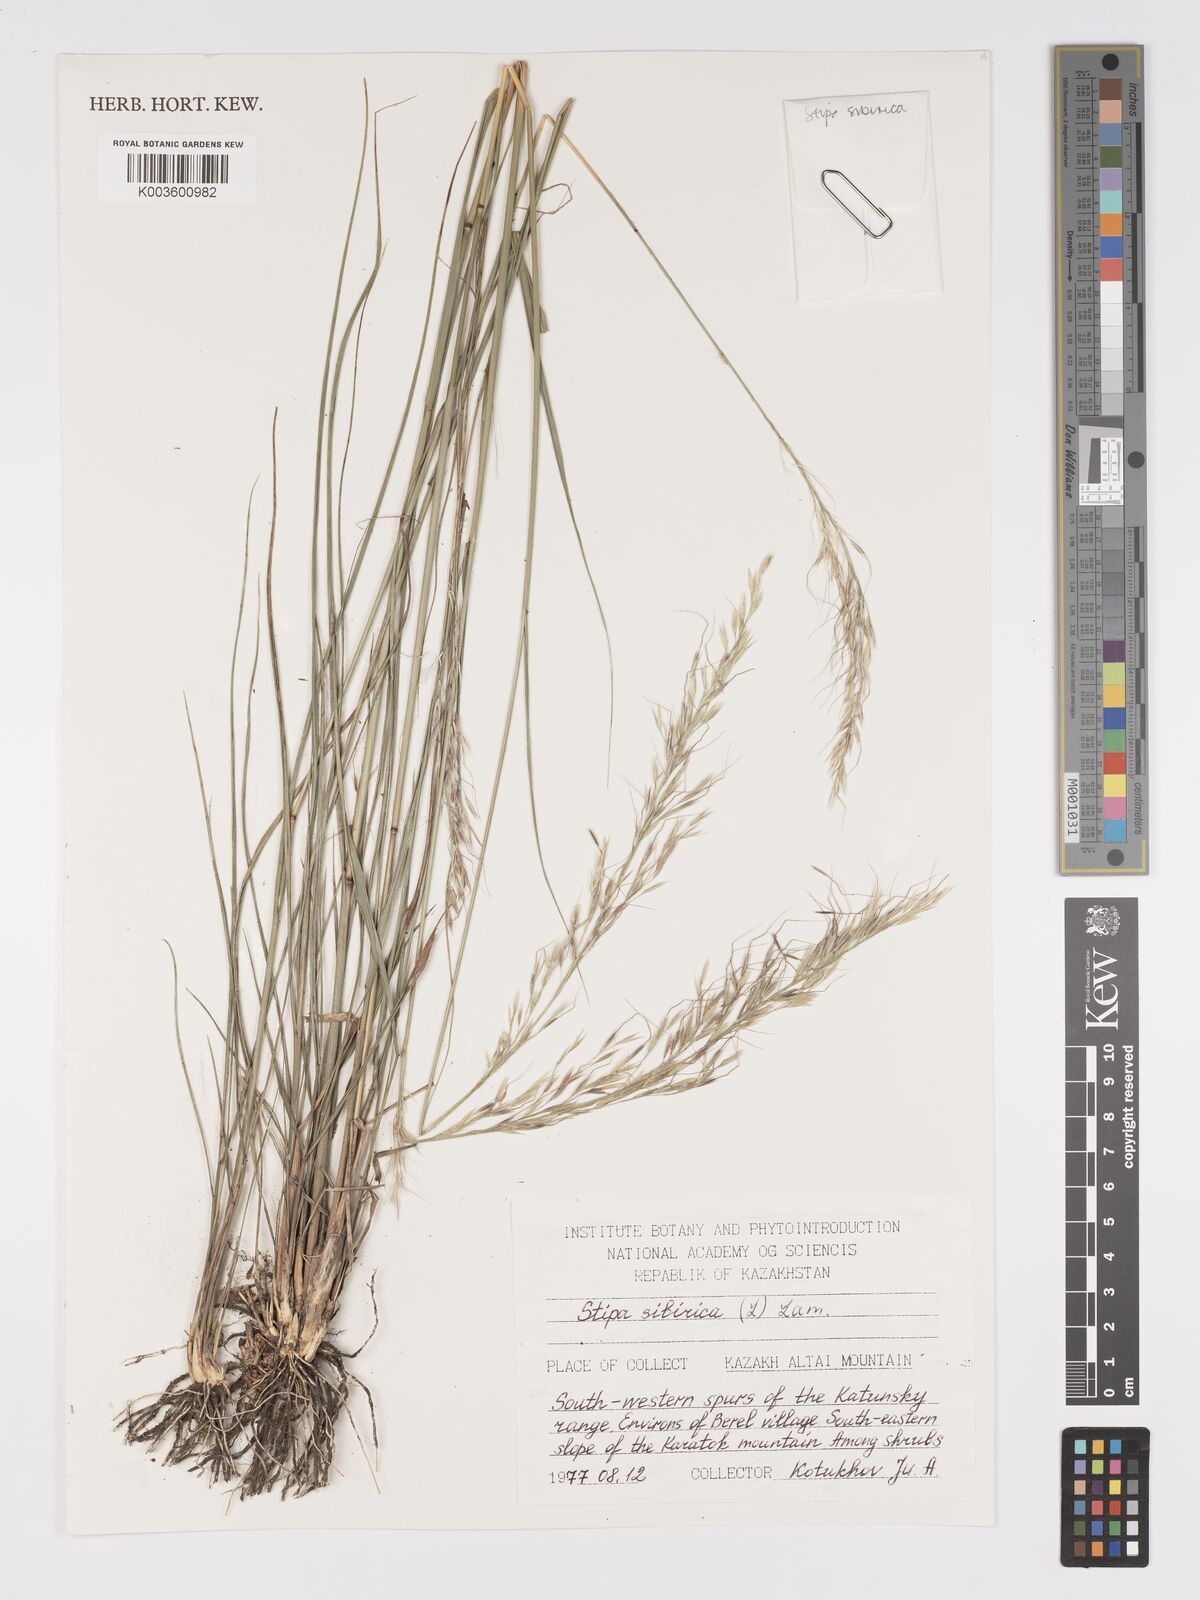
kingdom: Plantae
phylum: Tracheophyta
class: Liliopsida
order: Poales
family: Poaceae
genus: Achnatherum
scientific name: Achnatherum sibiricum
